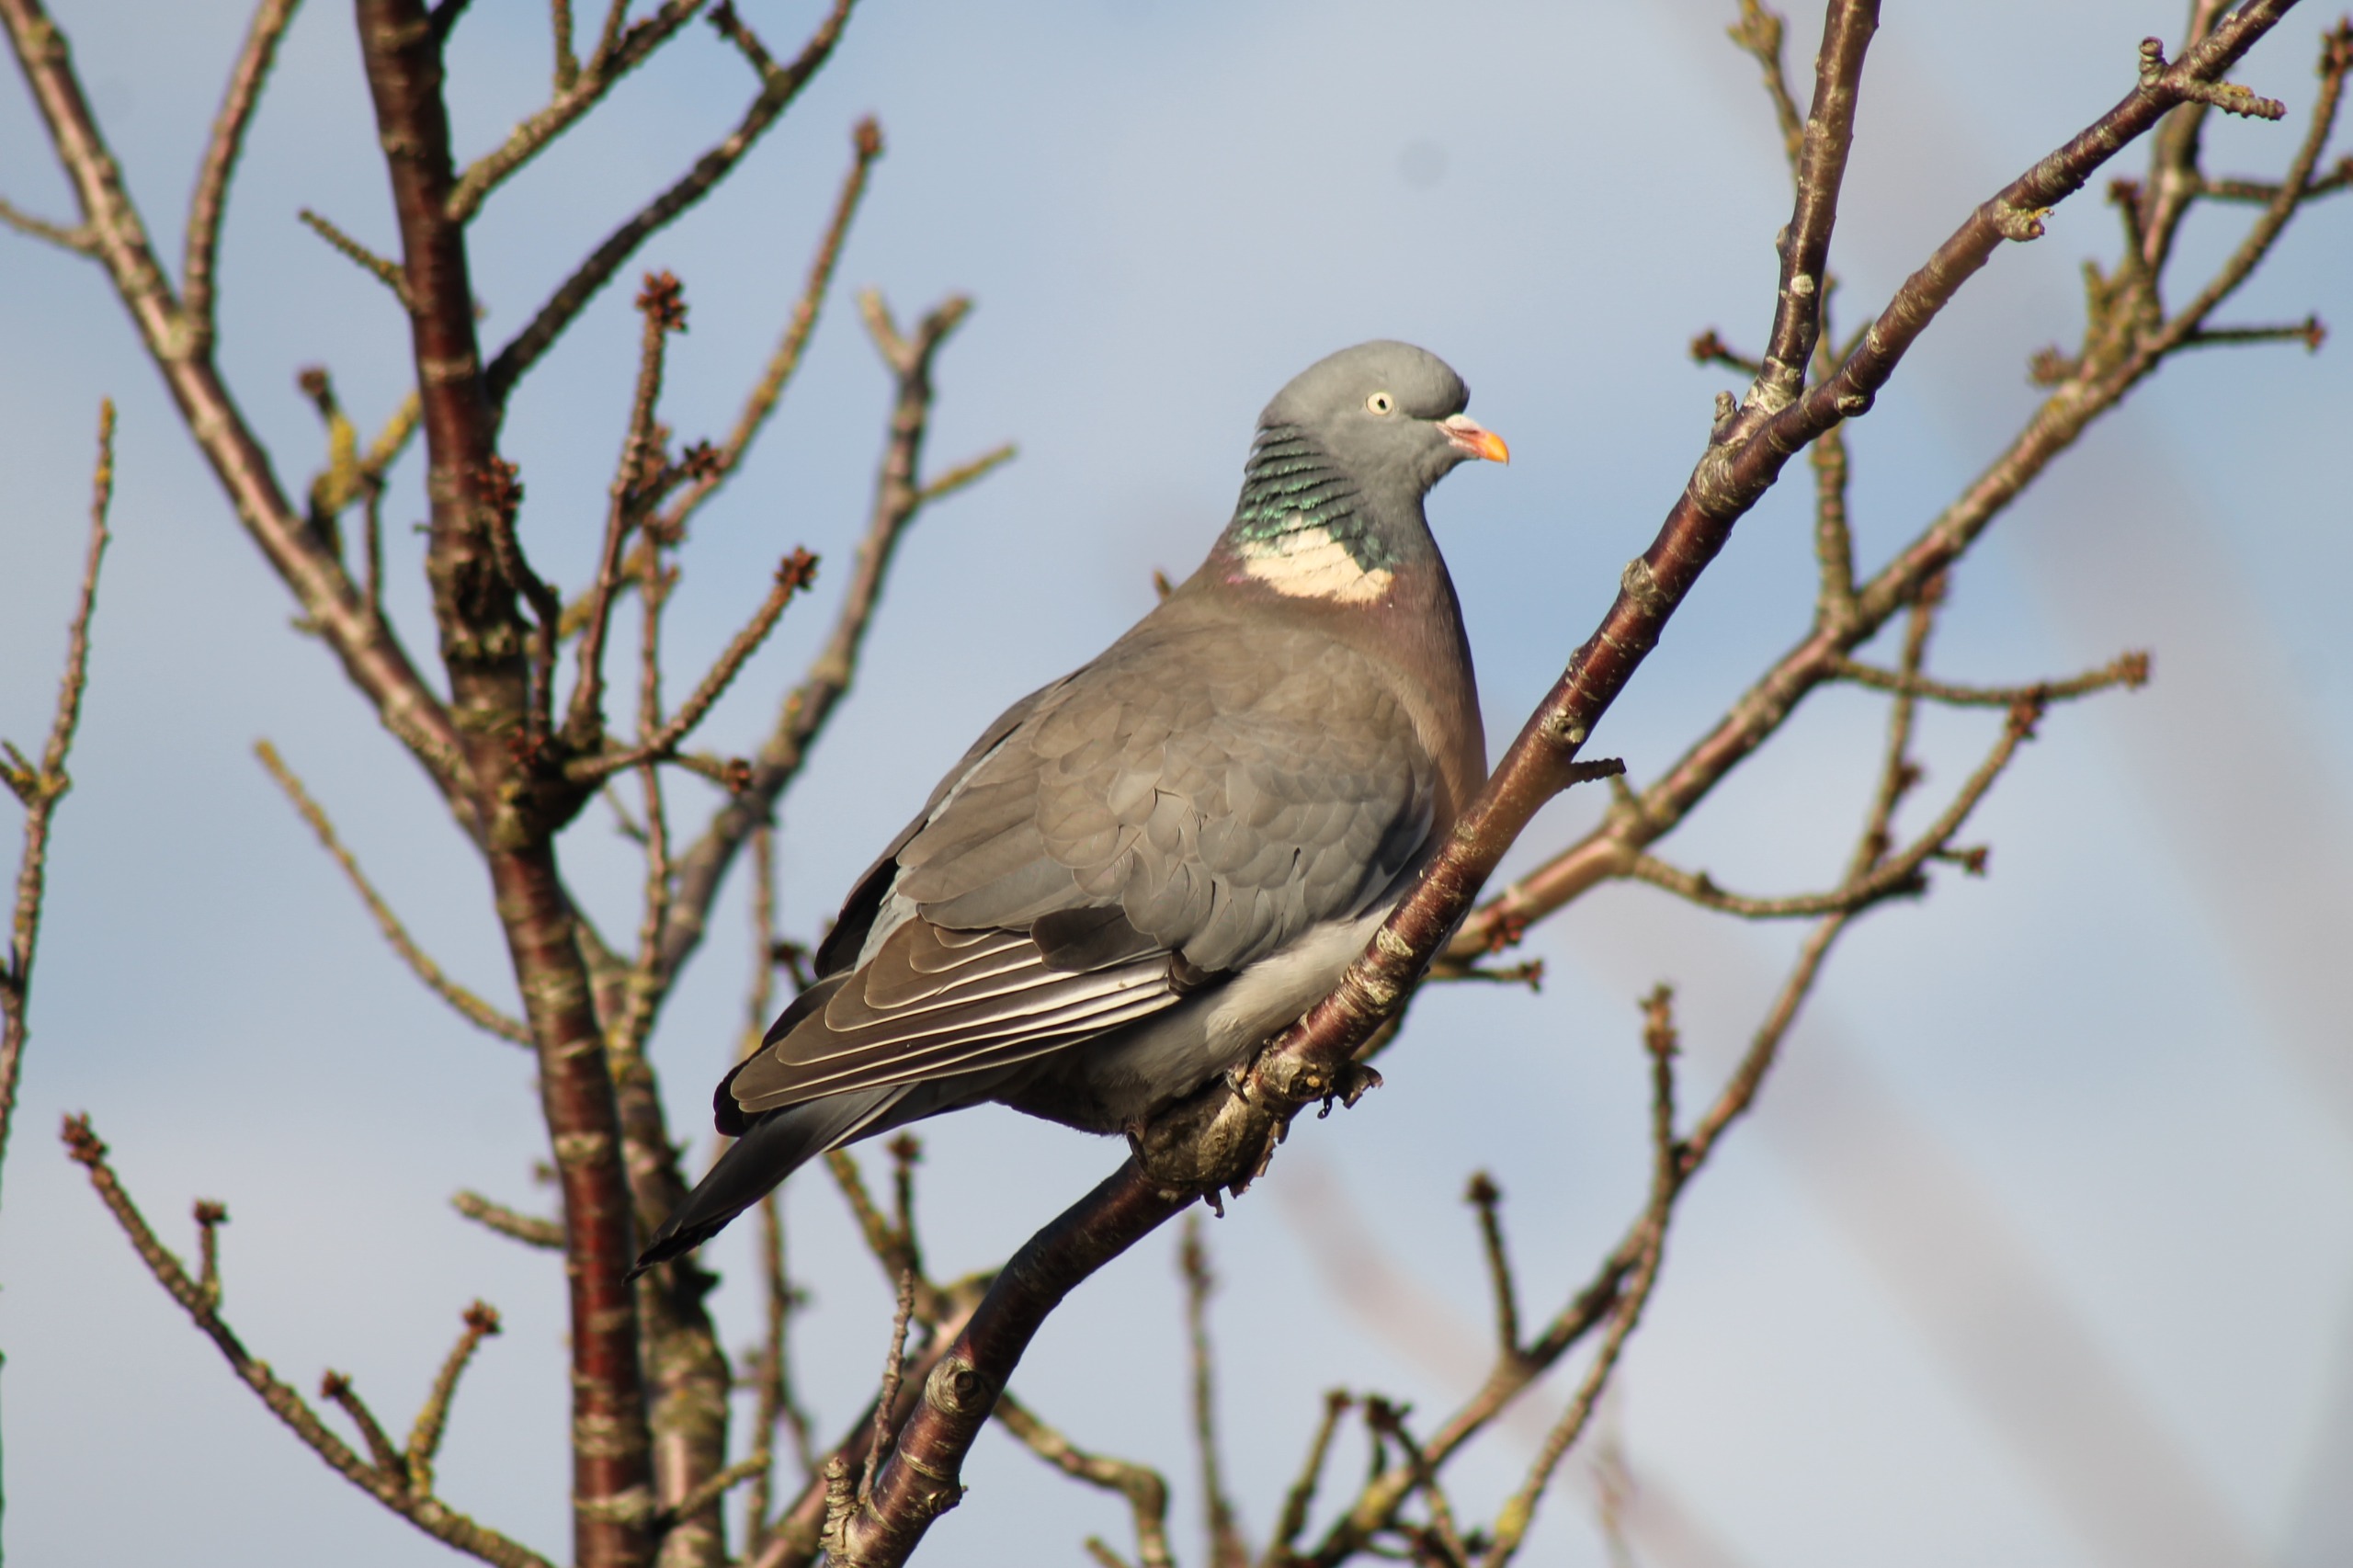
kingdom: Animalia
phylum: Chordata
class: Aves
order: Columbiformes
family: Columbidae
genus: Columba
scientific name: Columba palumbus
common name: Ringdue
